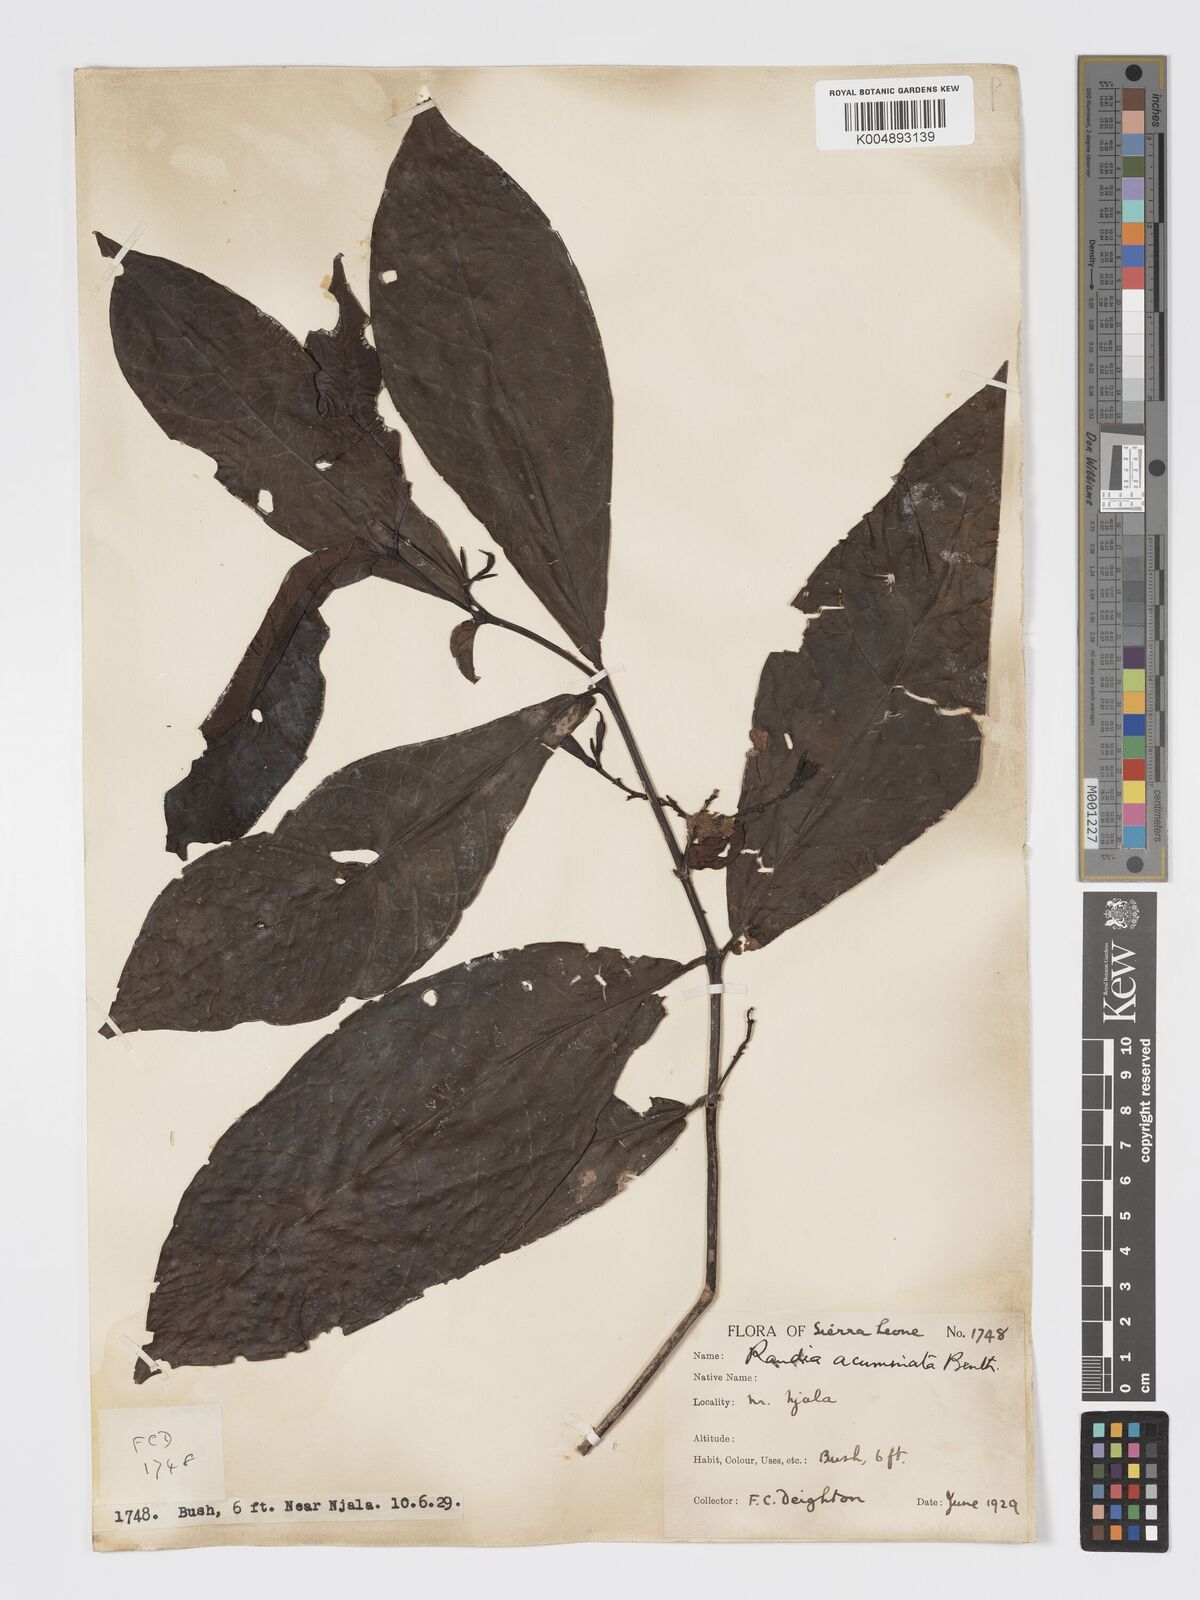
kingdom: Plantae
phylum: Tracheophyta
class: Magnoliopsida
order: Gentianales
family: Rubiaceae
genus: Massularia
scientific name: Massularia acuminata
